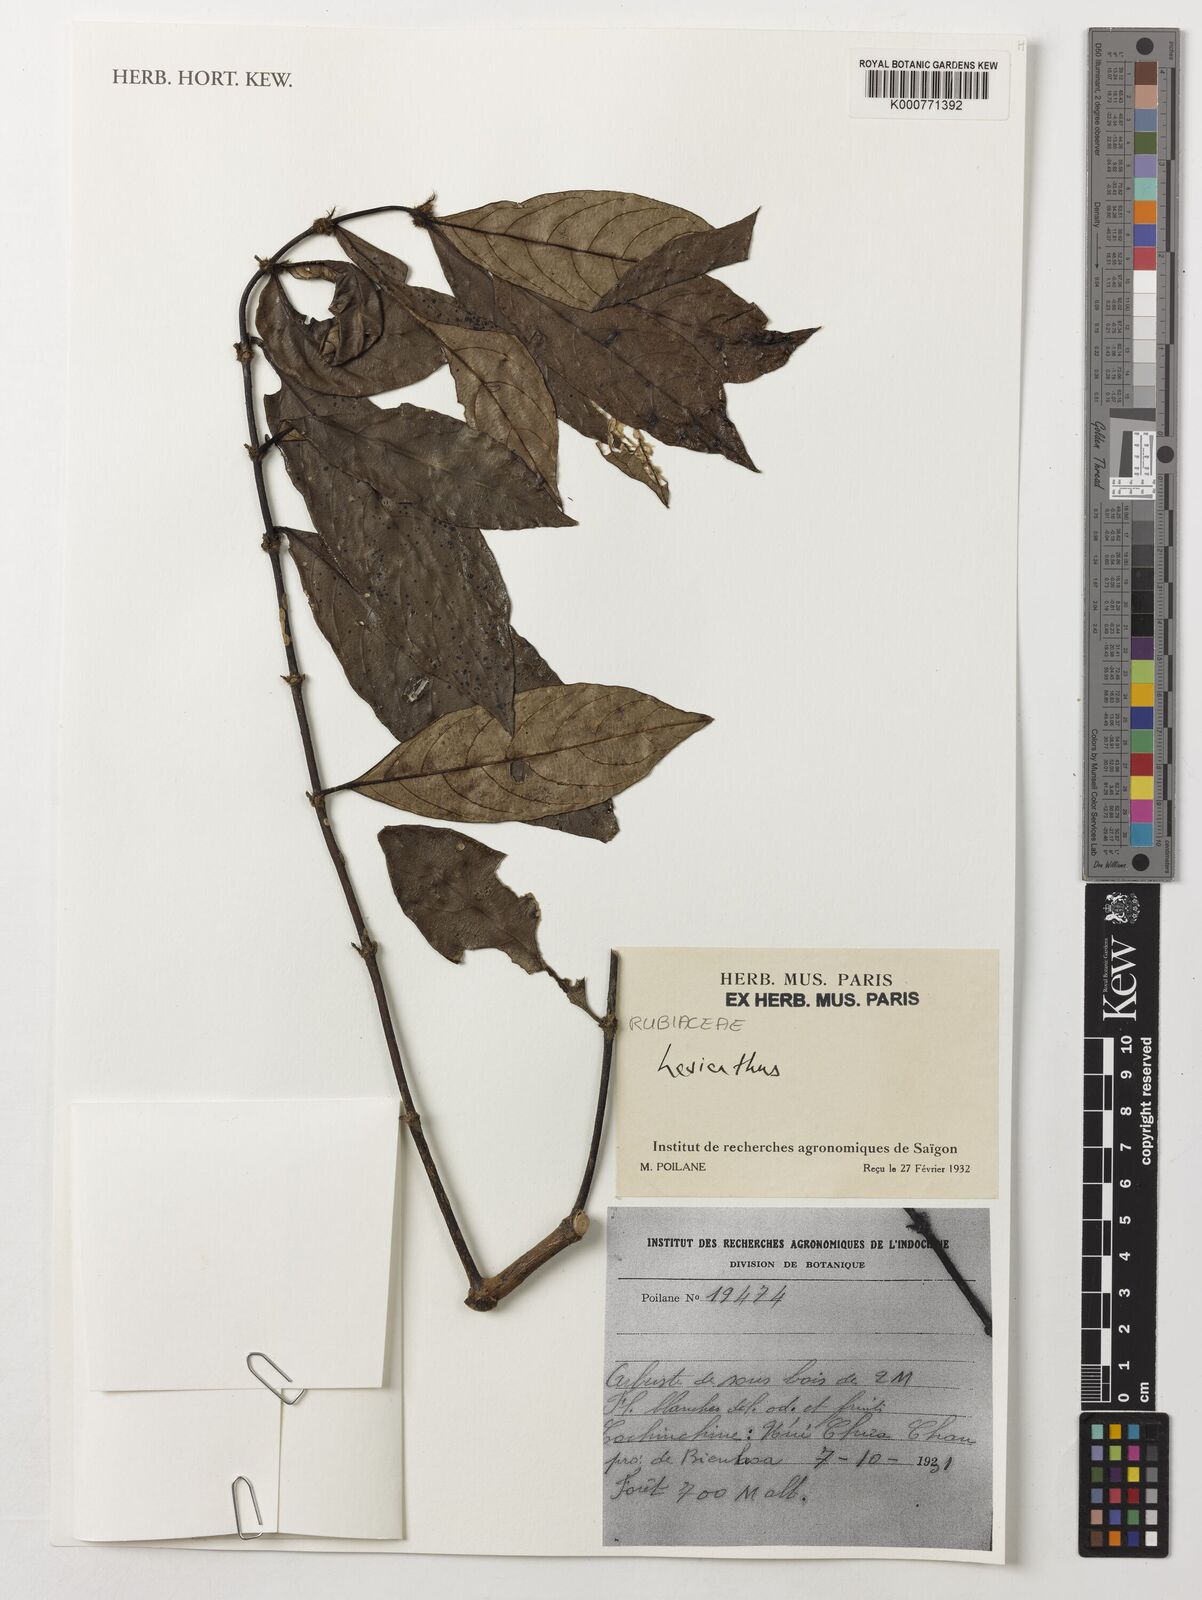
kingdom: Plantae
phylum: Tracheophyta
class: Magnoliopsida
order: Gentianales
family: Rubiaceae
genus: Lasianthus
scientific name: Lasianthus
